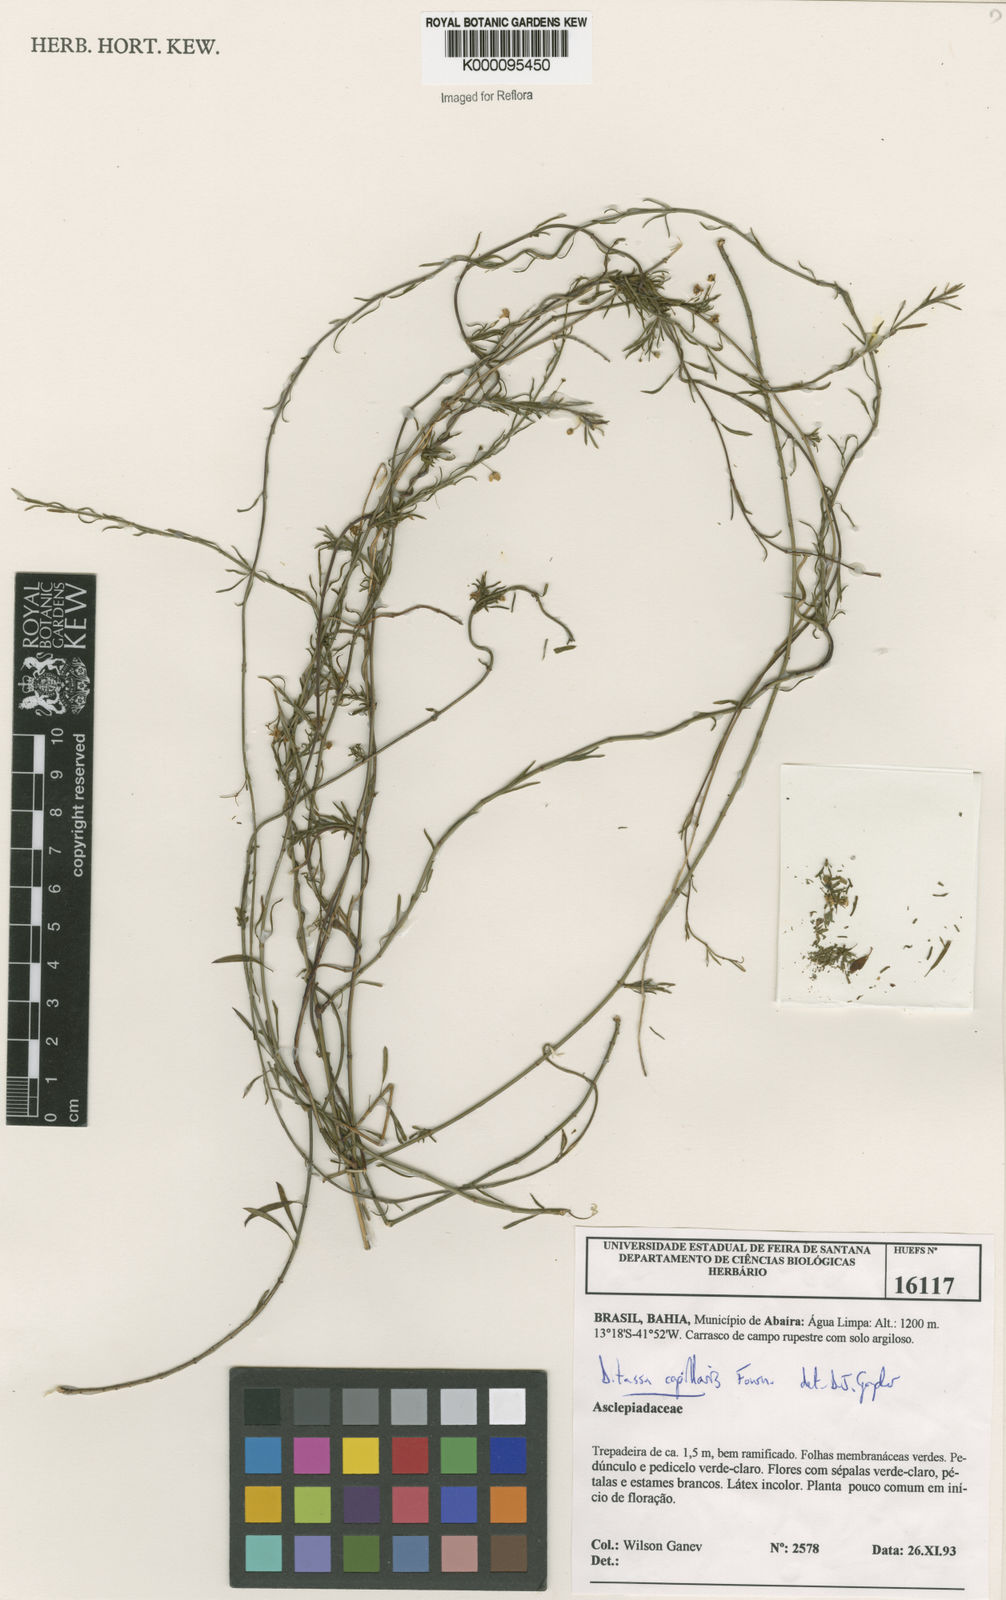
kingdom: Plantae
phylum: Tracheophyta
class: Magnoliopsida
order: Gentianales
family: Apocynaceae
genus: Ditassa
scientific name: Ditassa capillaris
